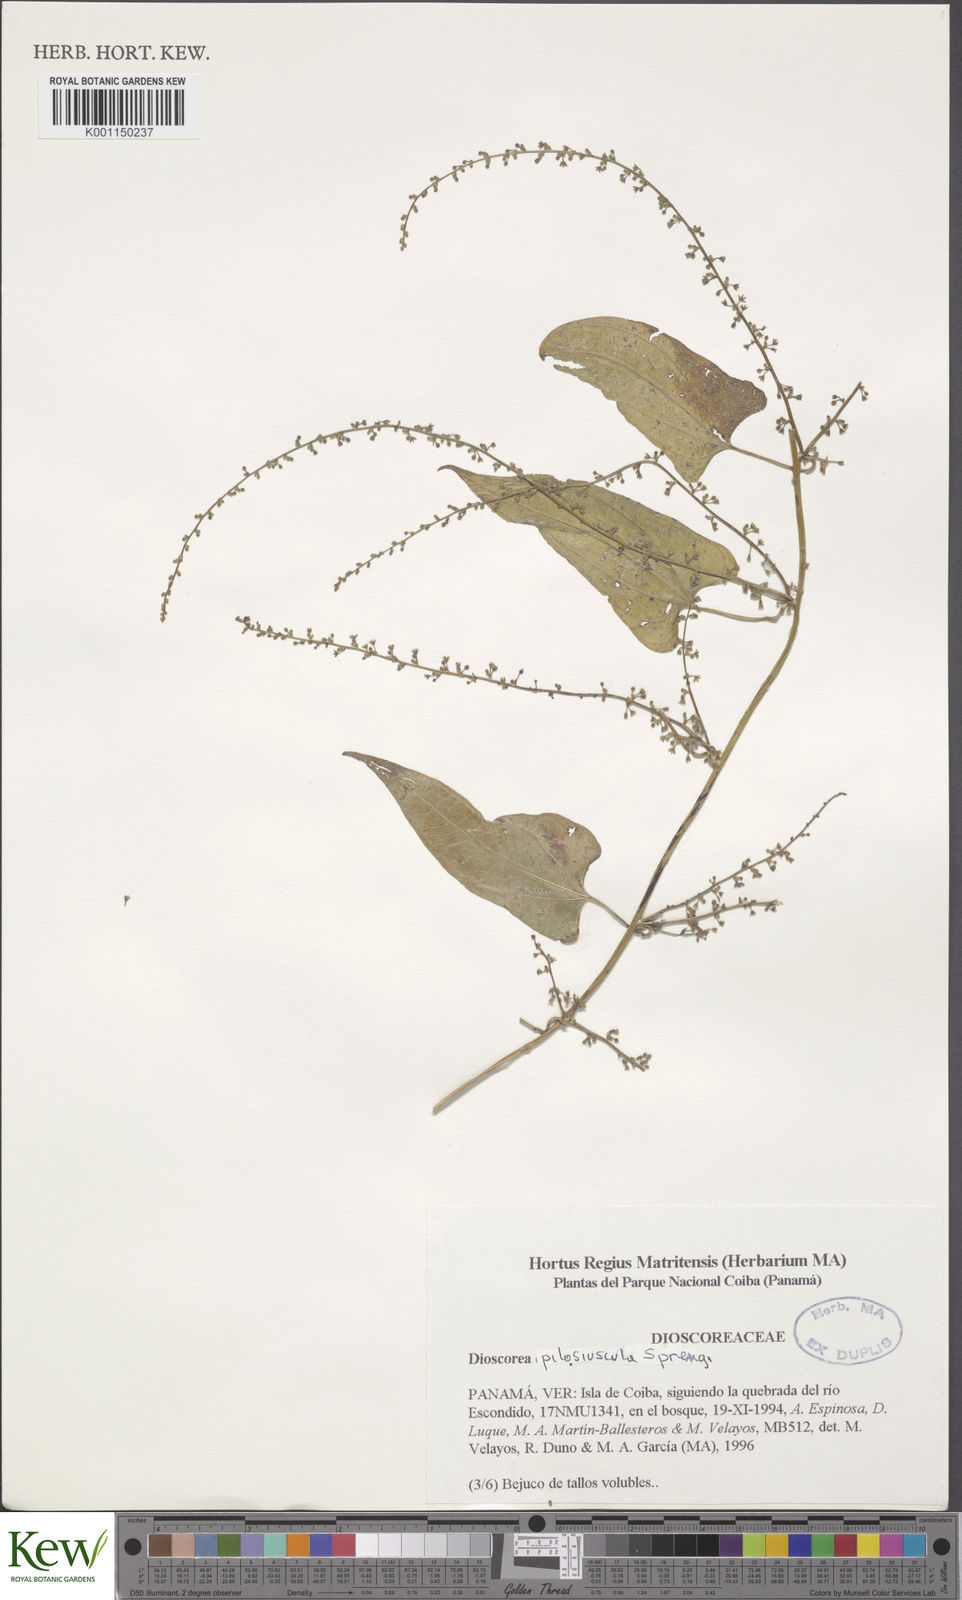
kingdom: Plantae
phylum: Tracheophyta
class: Liliopsida
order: Dioscoreales
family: Dioscoreaceae
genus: Dioscorea
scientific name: Dioscorea pilosiuscula
